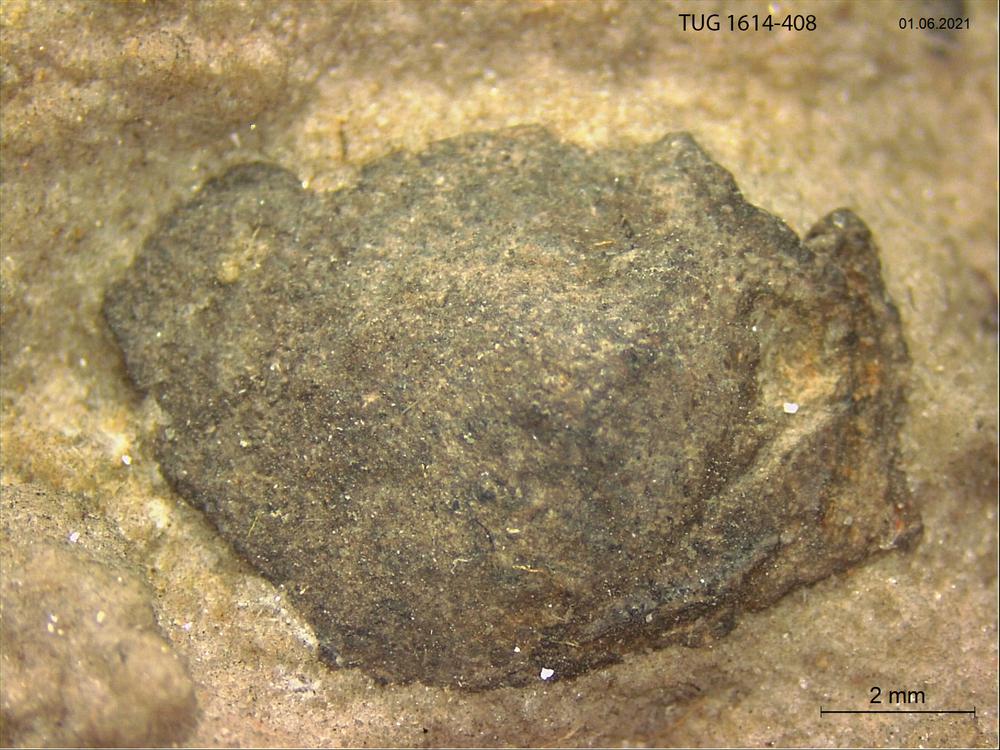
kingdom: Animalia
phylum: Mollusca
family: Scenellidae
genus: Scenella
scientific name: Scenella
